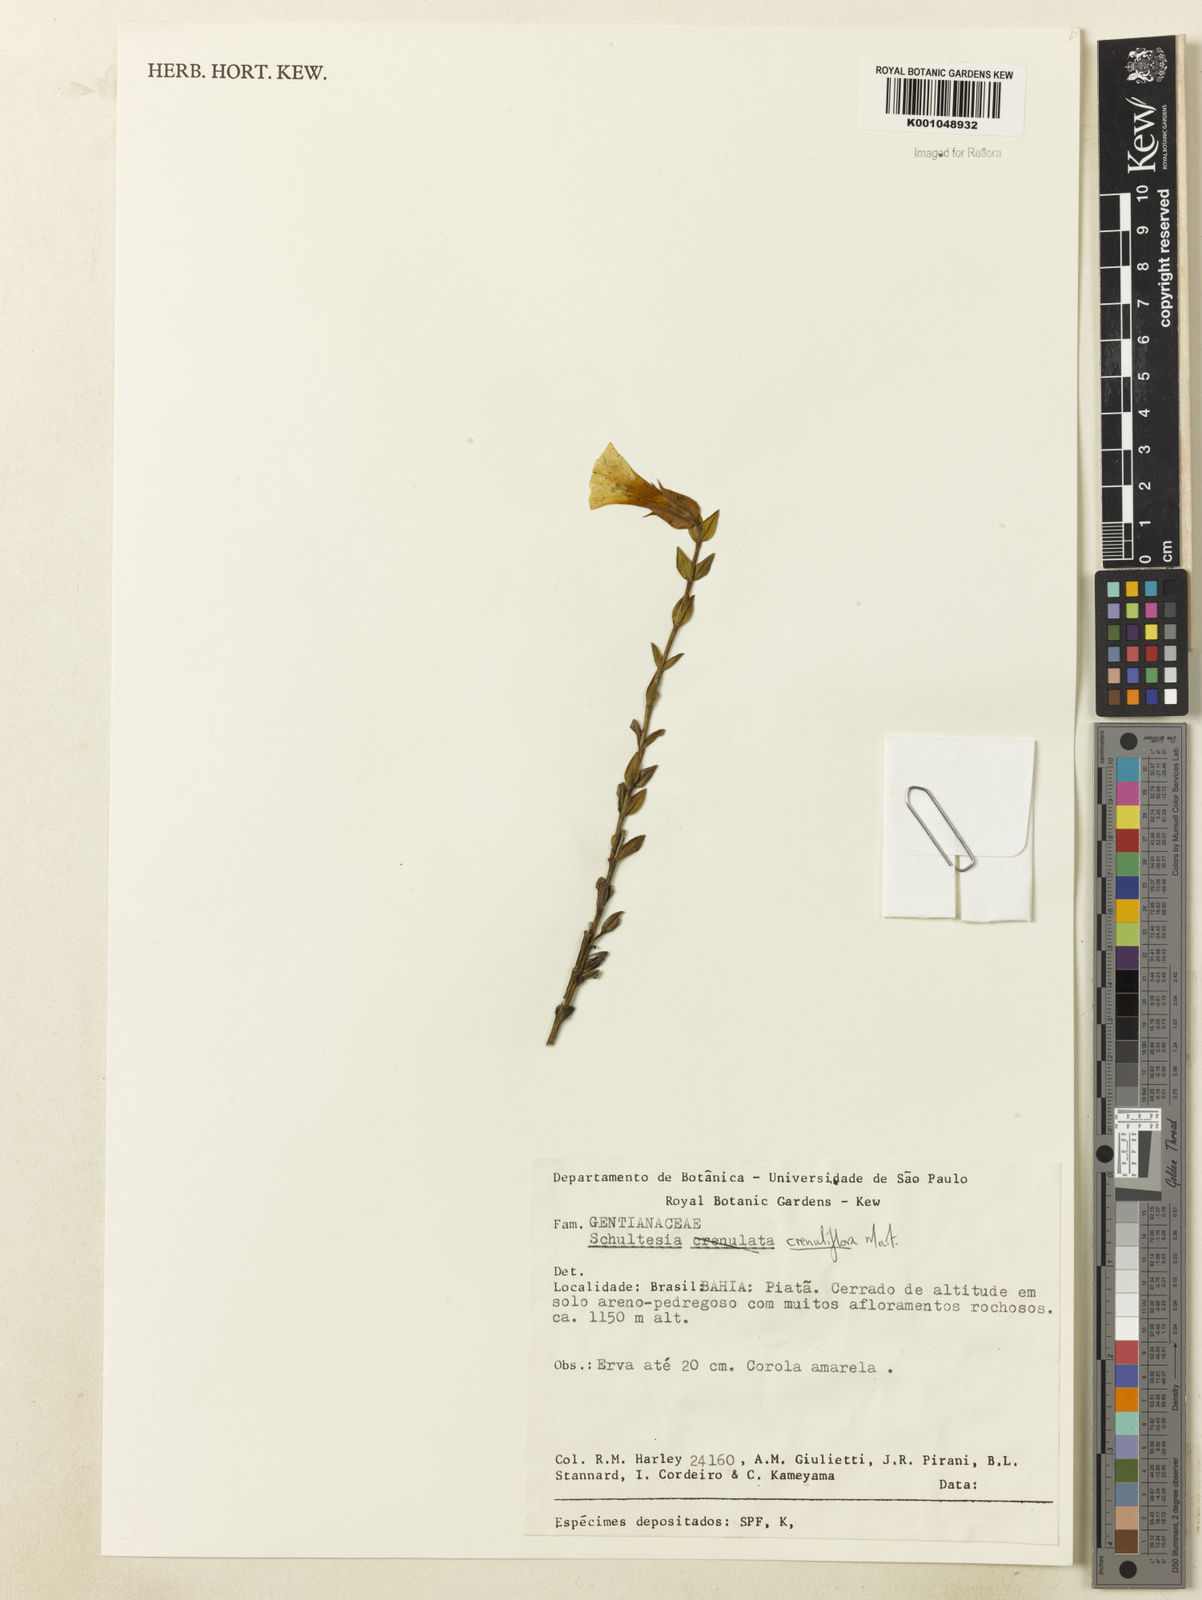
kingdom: Plantae
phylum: Tracheophyta
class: Magnoliopsida
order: Gentianales
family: Gentianaceae
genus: Schultesia
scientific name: Schultesia crenuliflora
